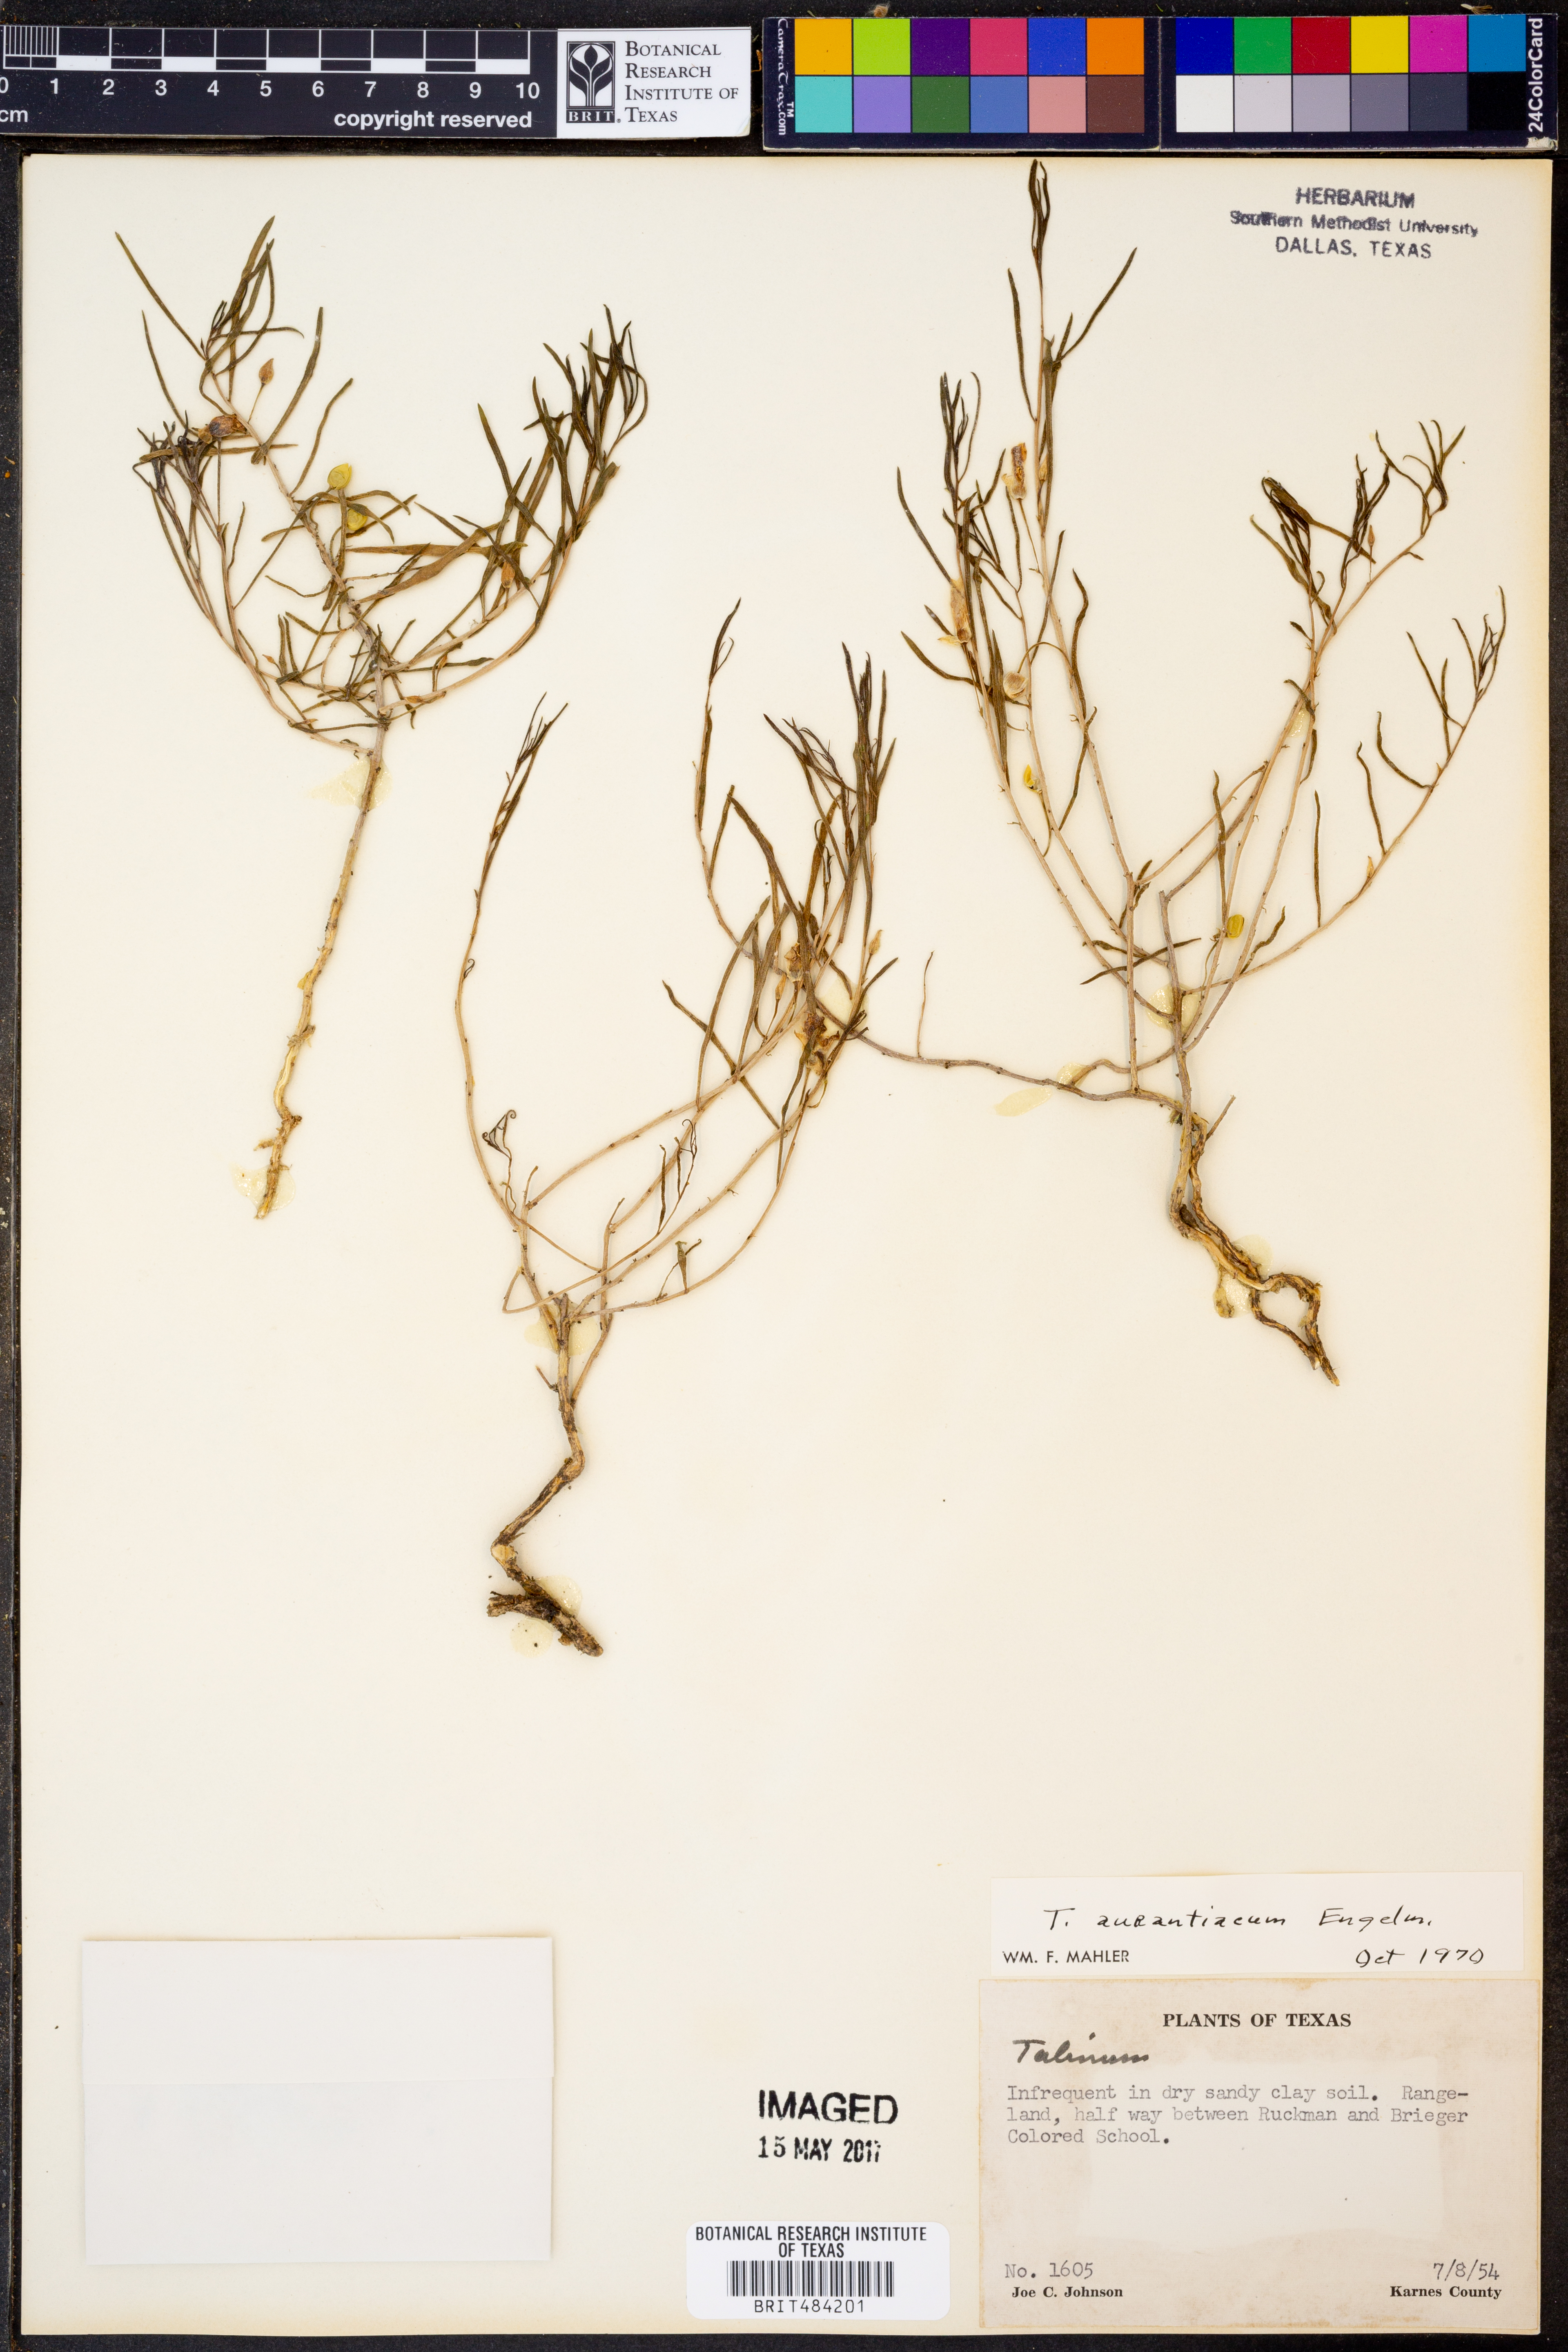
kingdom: Plantae
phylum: Tracheophyta
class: Magnoliopsida
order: Caryophyllales
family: Montiaceae
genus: Phemeranthus
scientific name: Phemeranthus aurantiacus
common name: Orange fameflower
